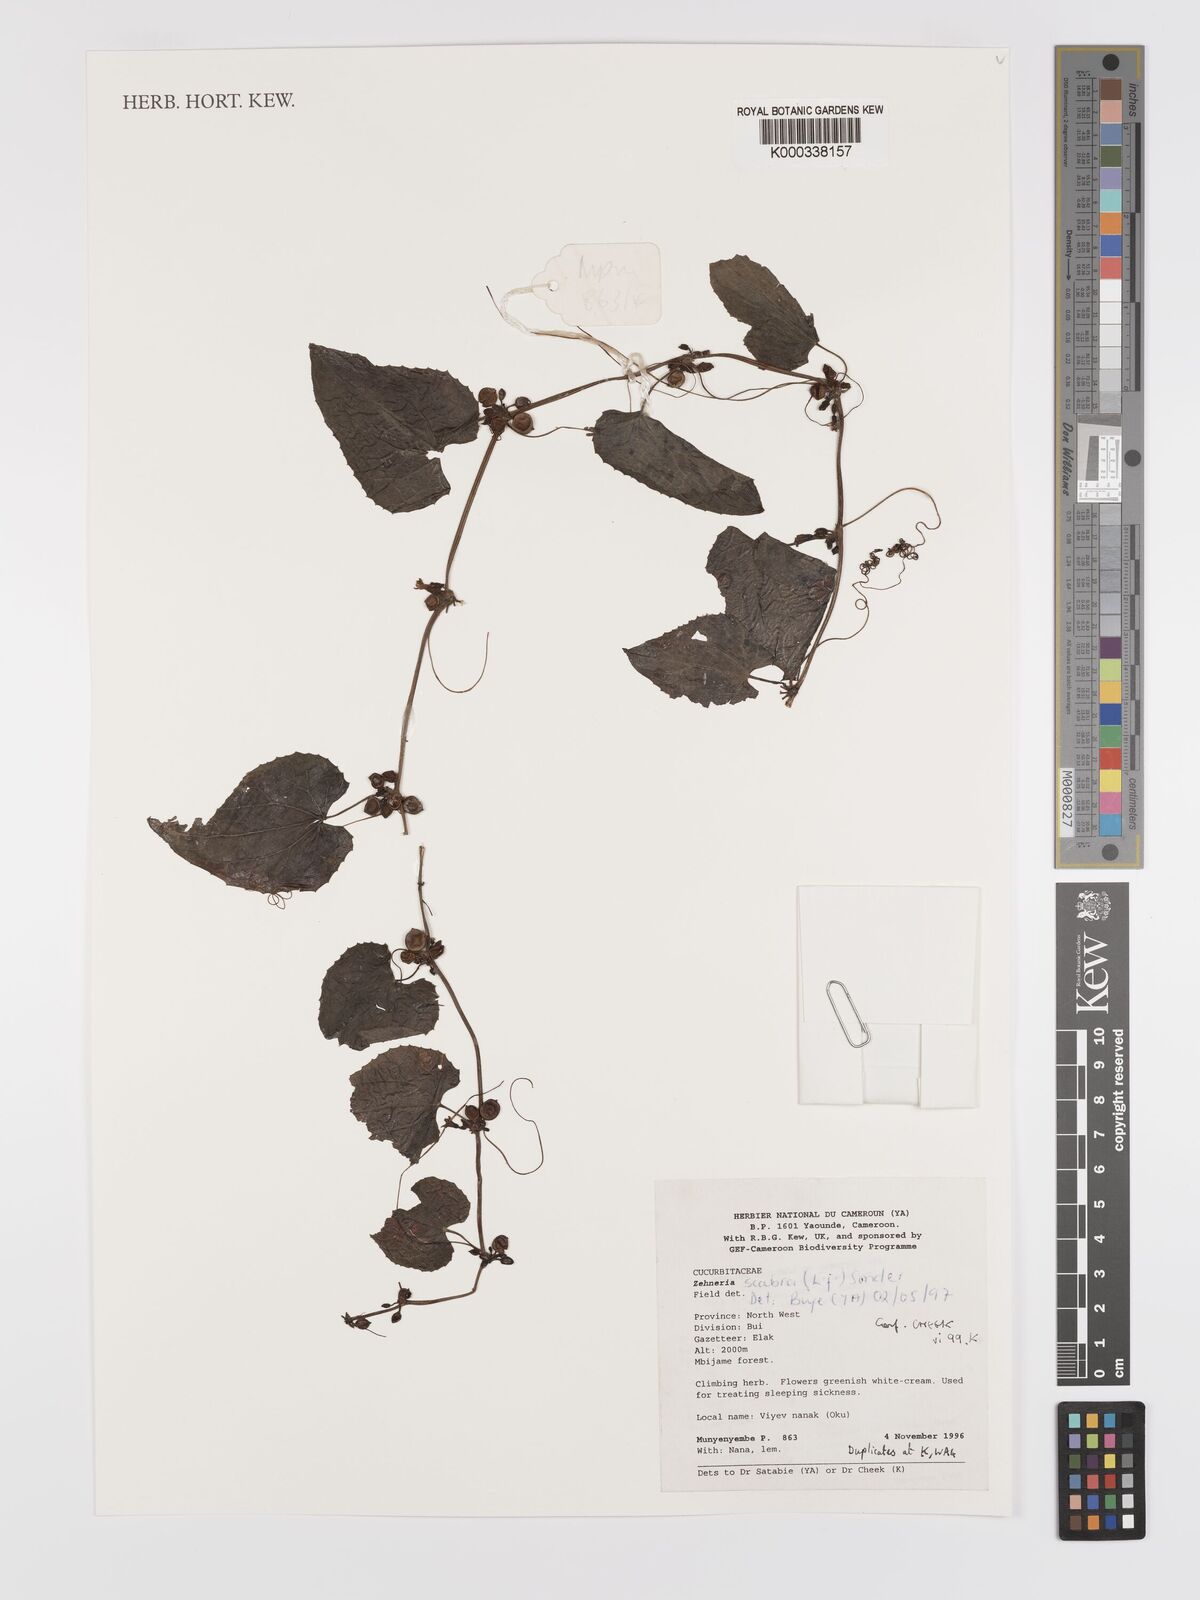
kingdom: Plantae
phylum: Tracheophyta
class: Magnoliopsida
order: Cucurbitales
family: Cucurbitaceae
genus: Zehneria
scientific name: Zehneria scabra
